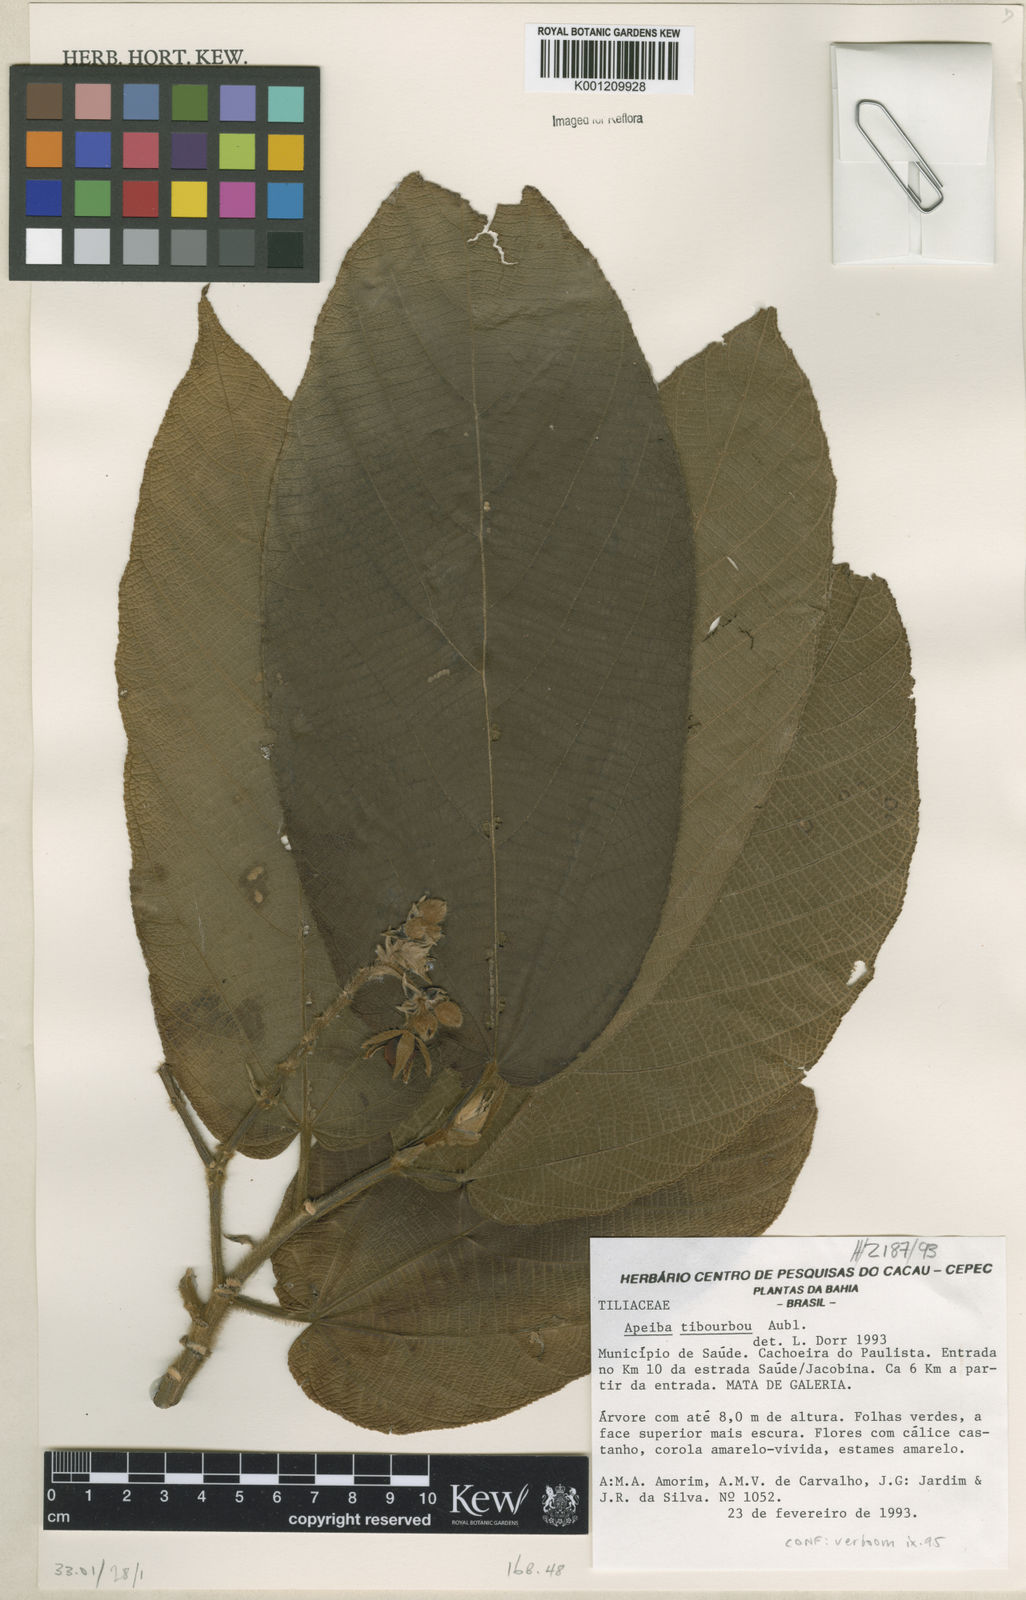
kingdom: Plantae
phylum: Tracheophyta
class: Magnoliopsida
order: Malvales
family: Malvaceae
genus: Apeiba
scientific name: Apeiba tibourbou
